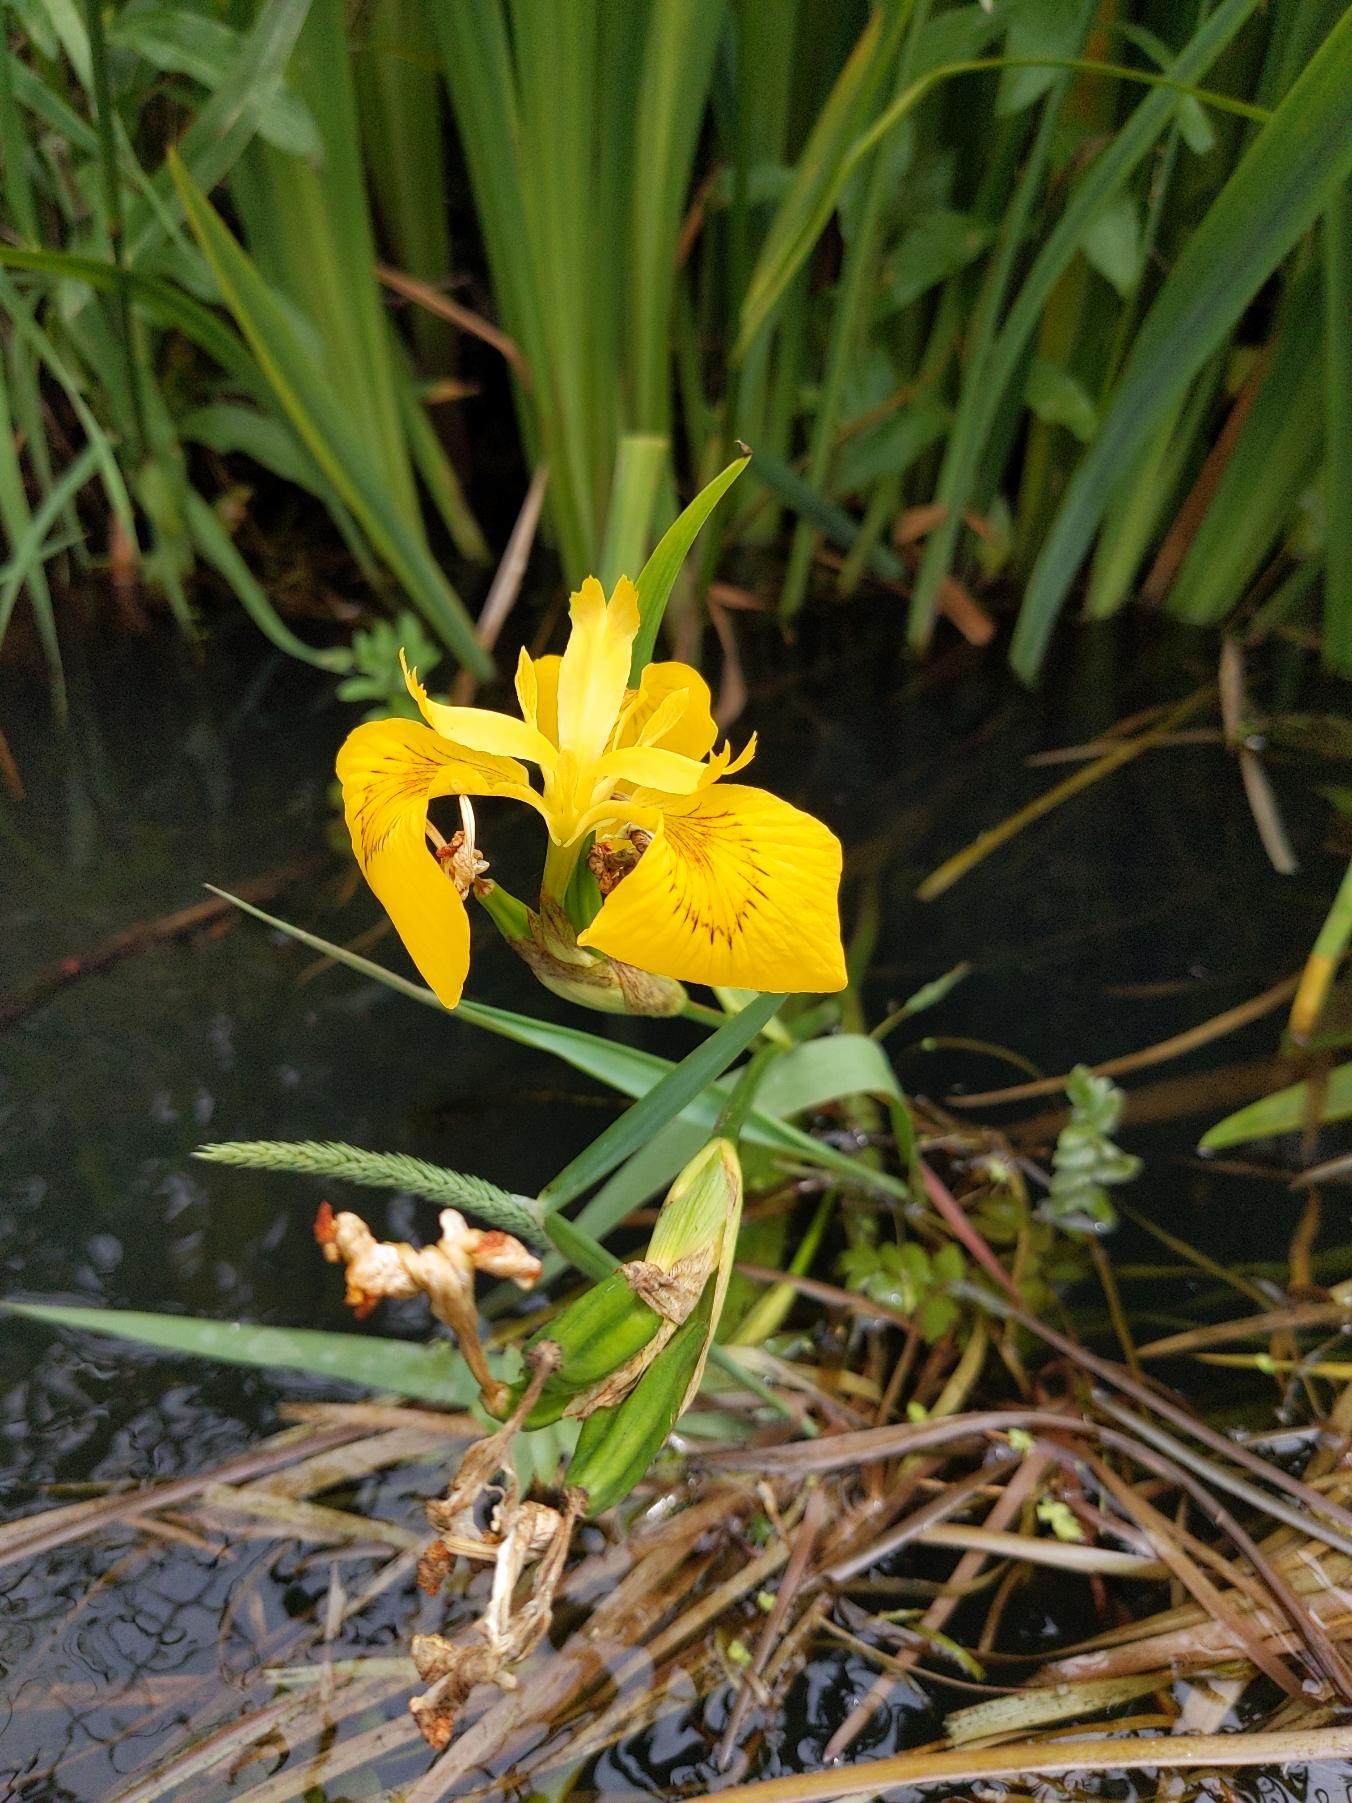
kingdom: Plantae
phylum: Tracheophyta
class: Liliopsida
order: Asparagales
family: Iridaceae
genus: Iris
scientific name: Iris pseudacorus
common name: Gul iris
